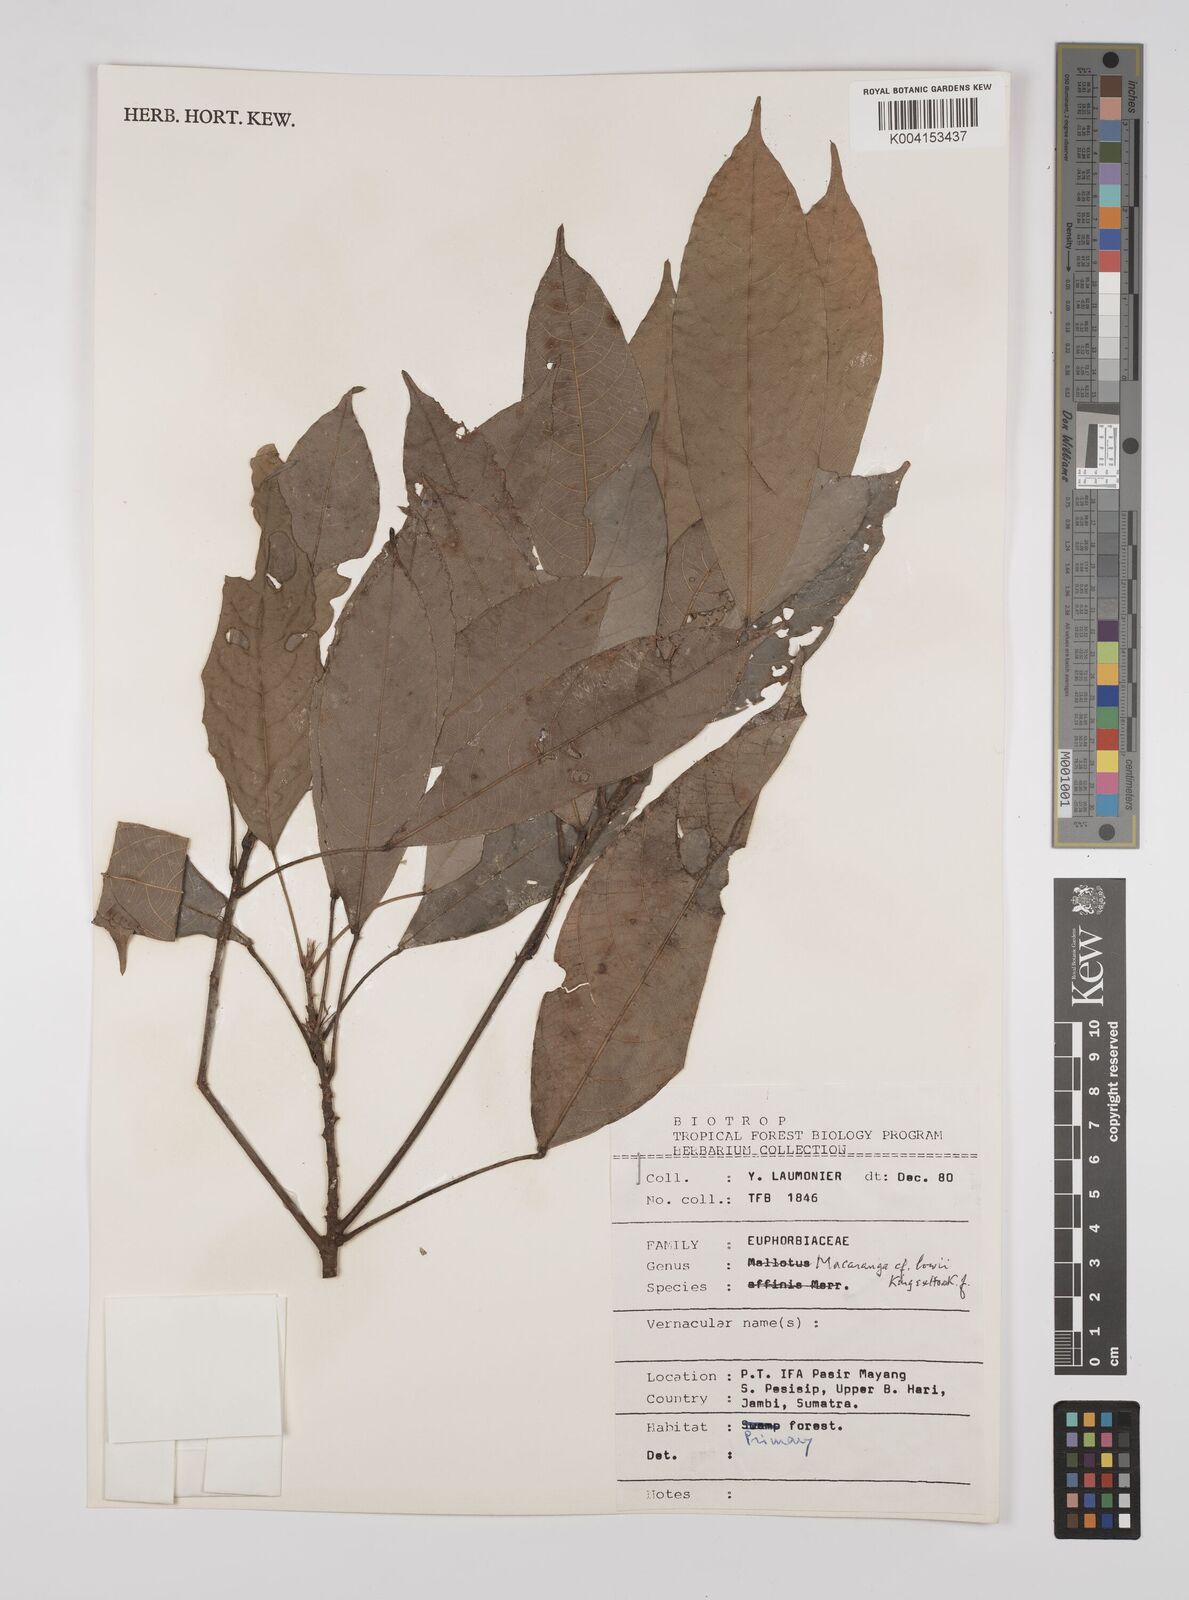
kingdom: Plantae
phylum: Tracheophyta
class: Magnoliopsida
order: Malpighiales
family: Euphorbiaceae
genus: Macaranga
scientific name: Macaranga lowii
